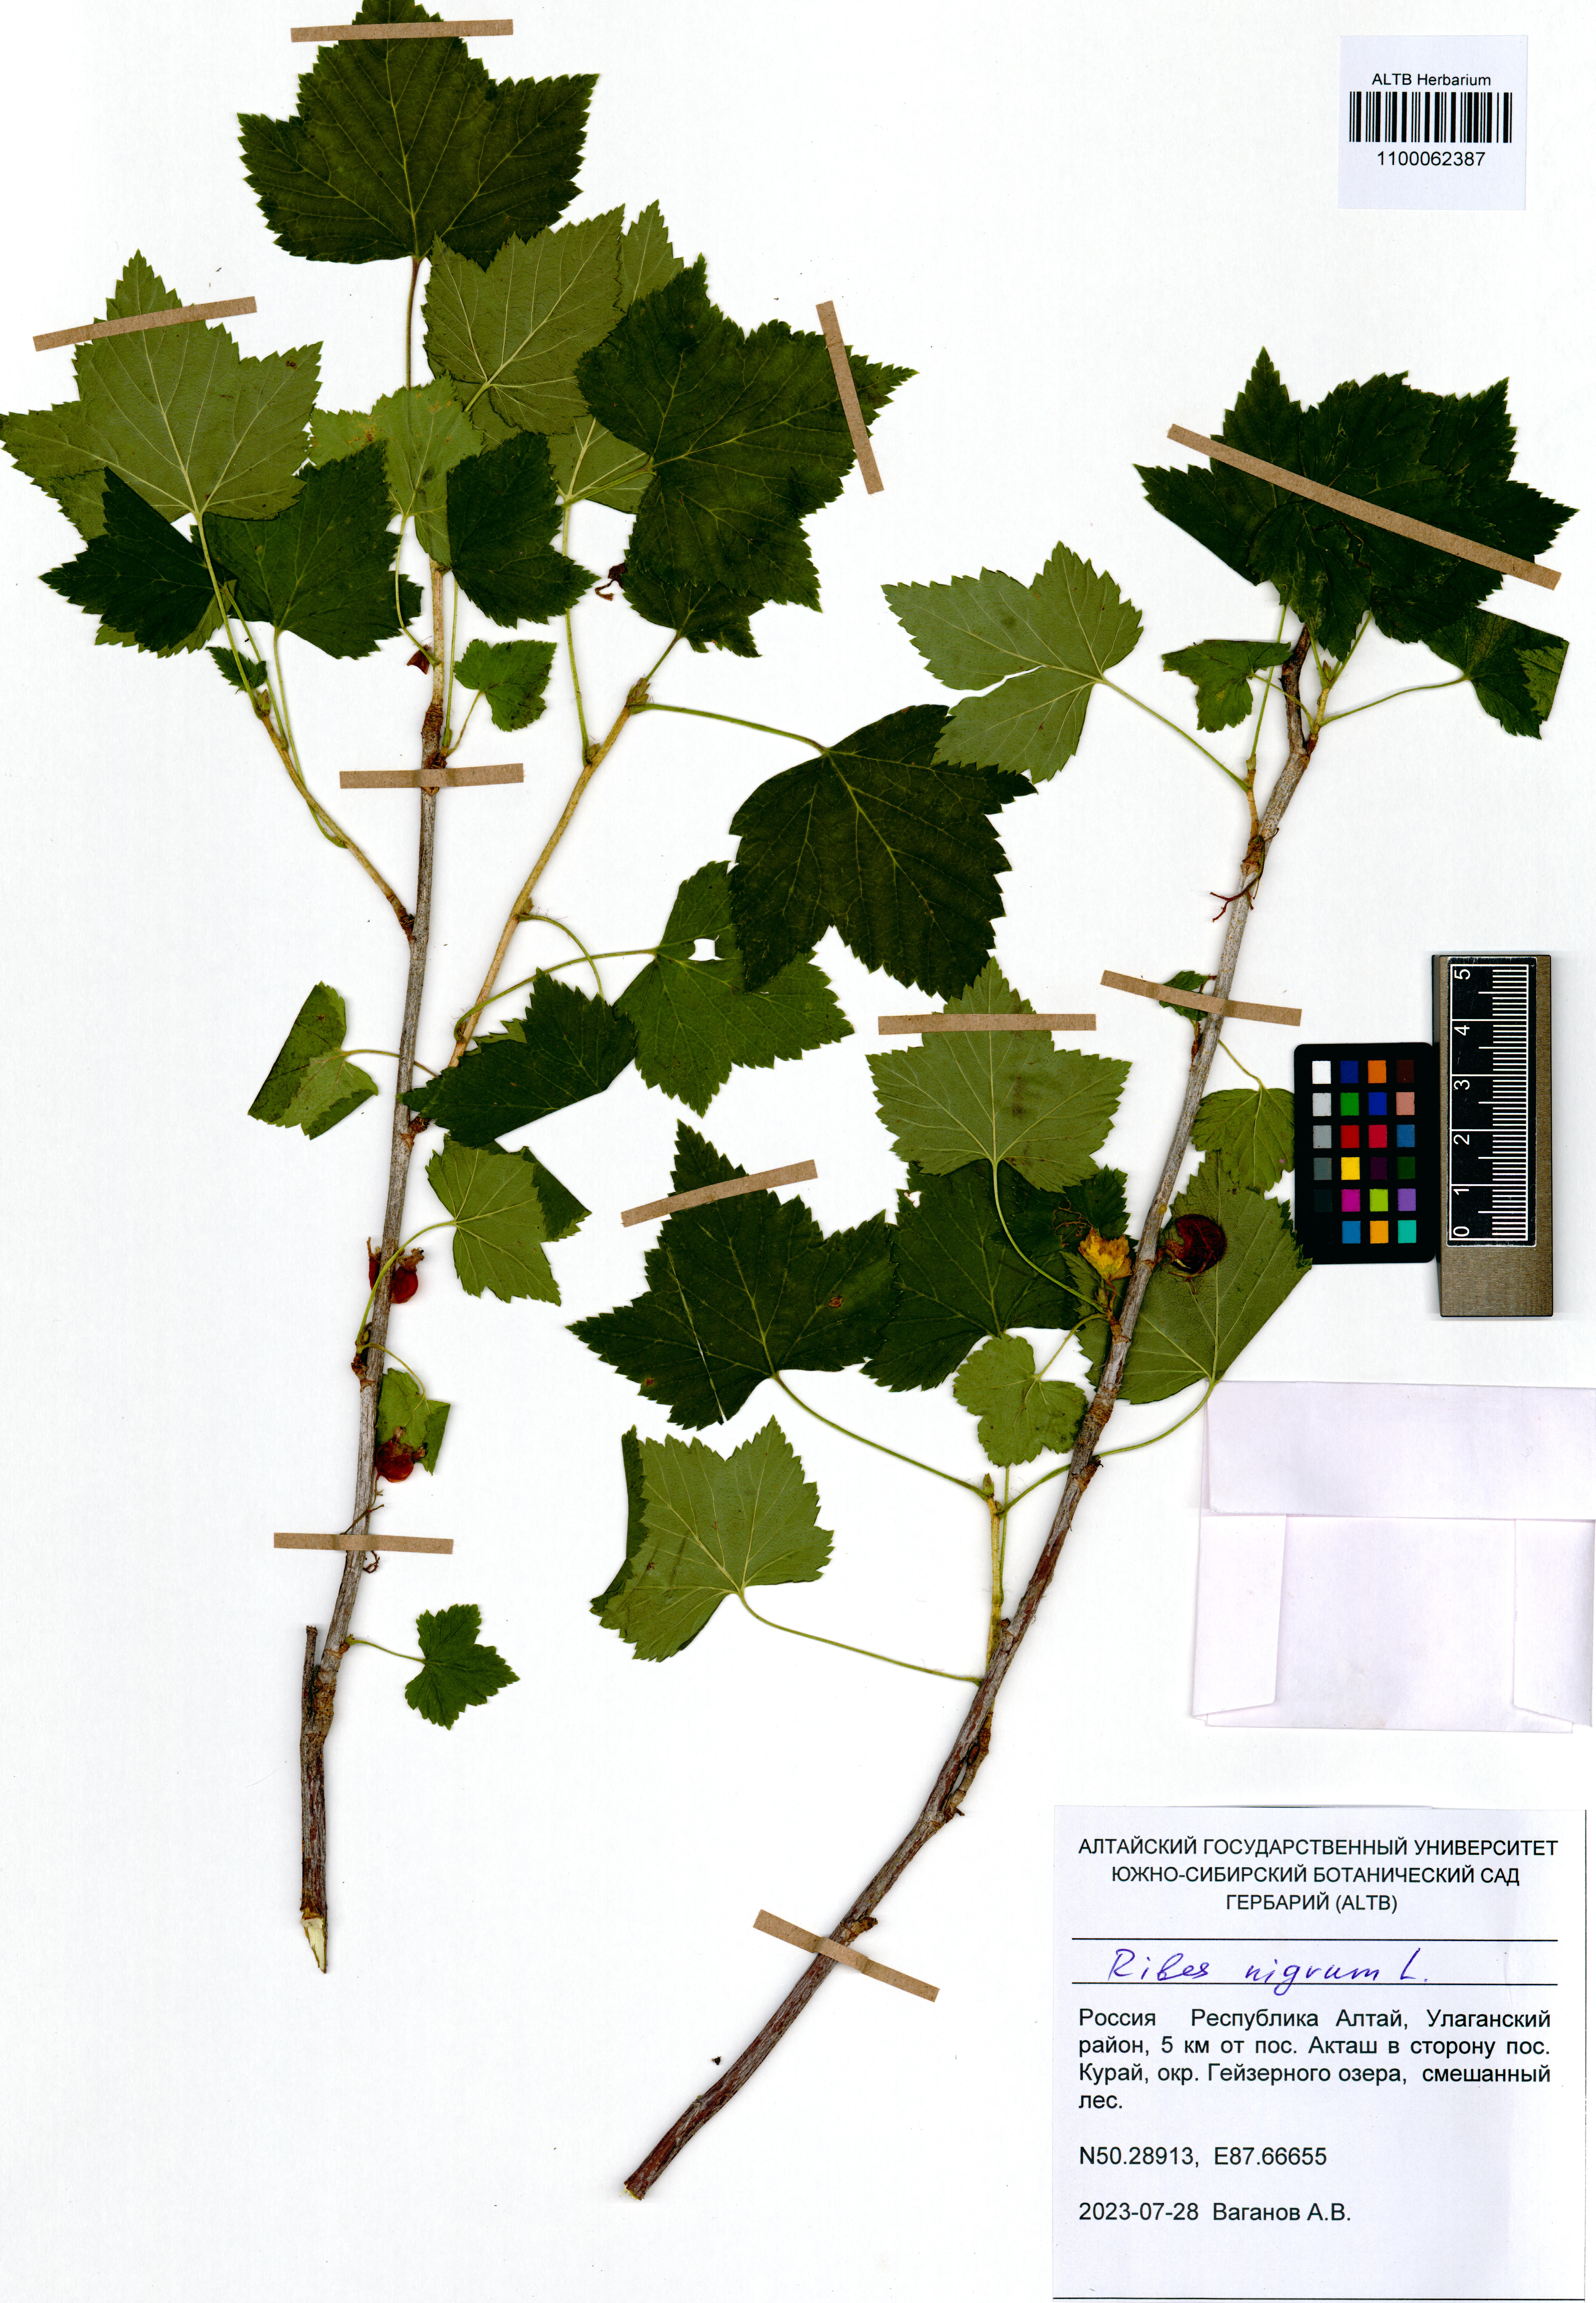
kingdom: Plantae
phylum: Tracheophyta
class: Magnoliopsida
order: Saxifragales
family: Grossulariaceae
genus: Ribes
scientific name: Ribes nigrum
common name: Black currant
